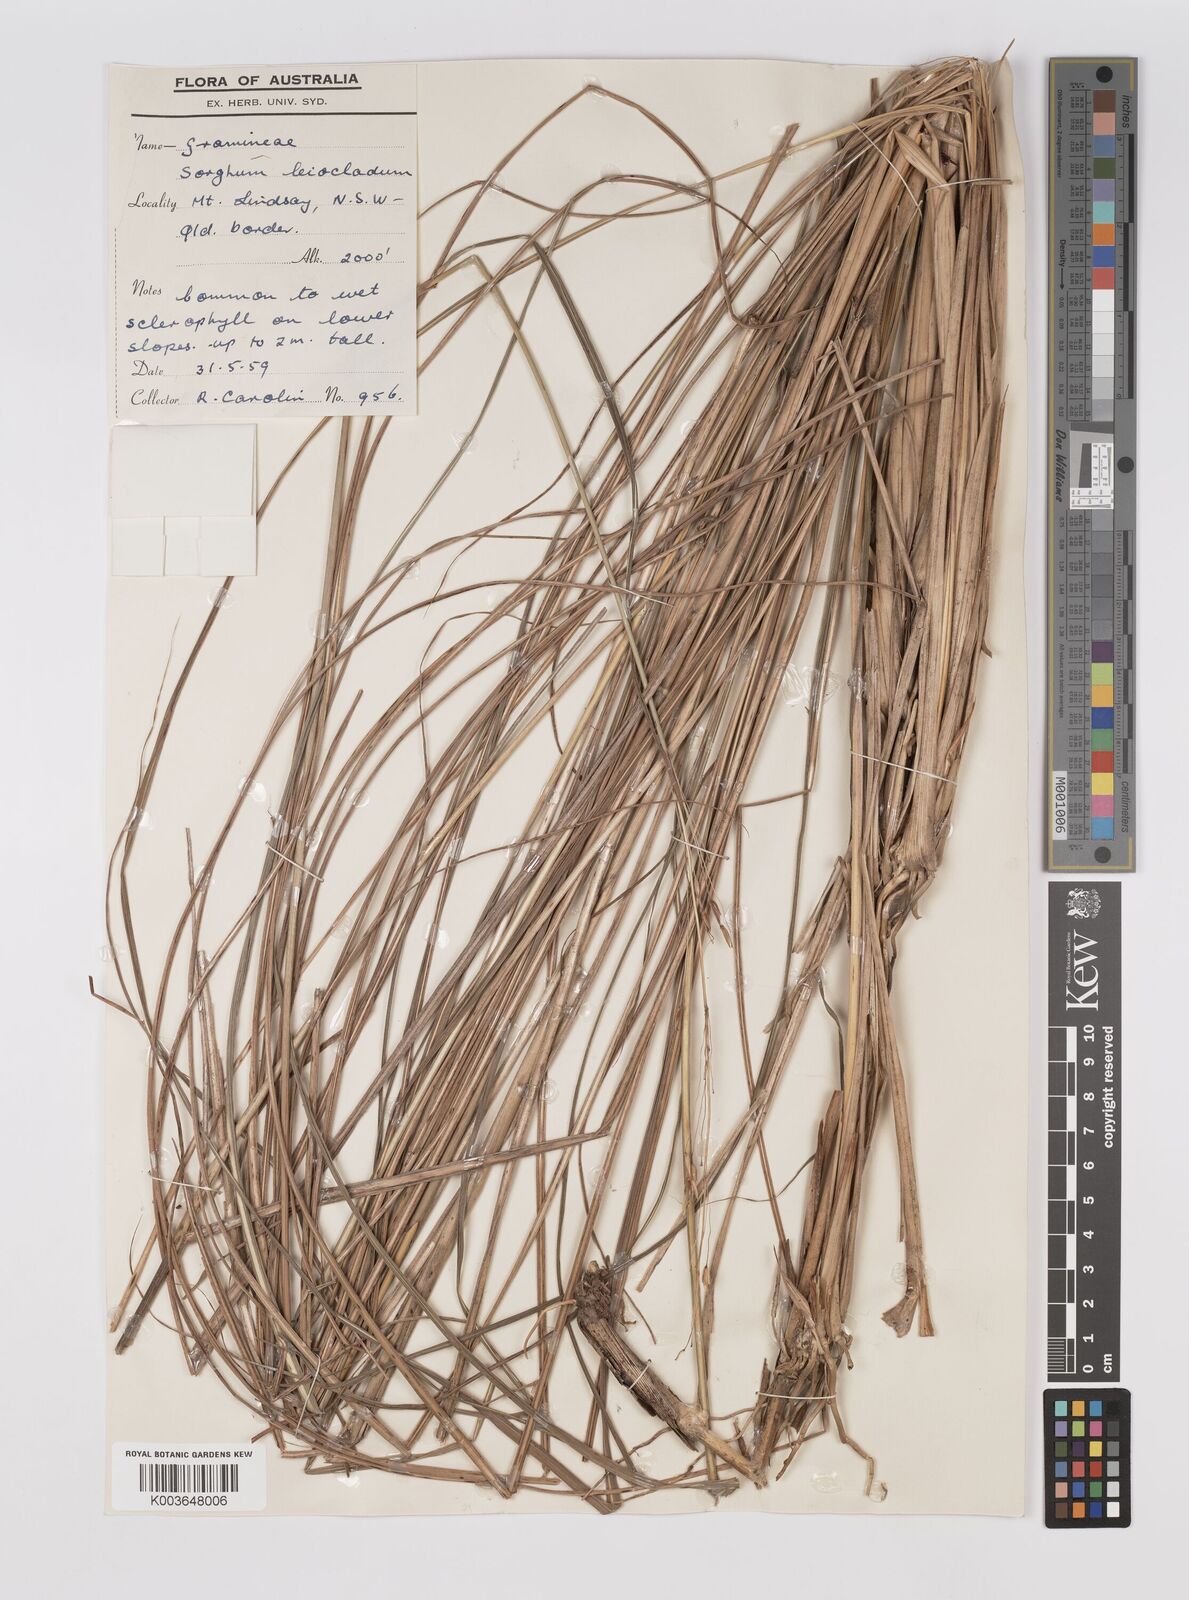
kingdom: Plantae
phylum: Tracheophyta
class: Liliopsida
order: Poales
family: Poaceae
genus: Sarga
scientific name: Sarga leioclada
